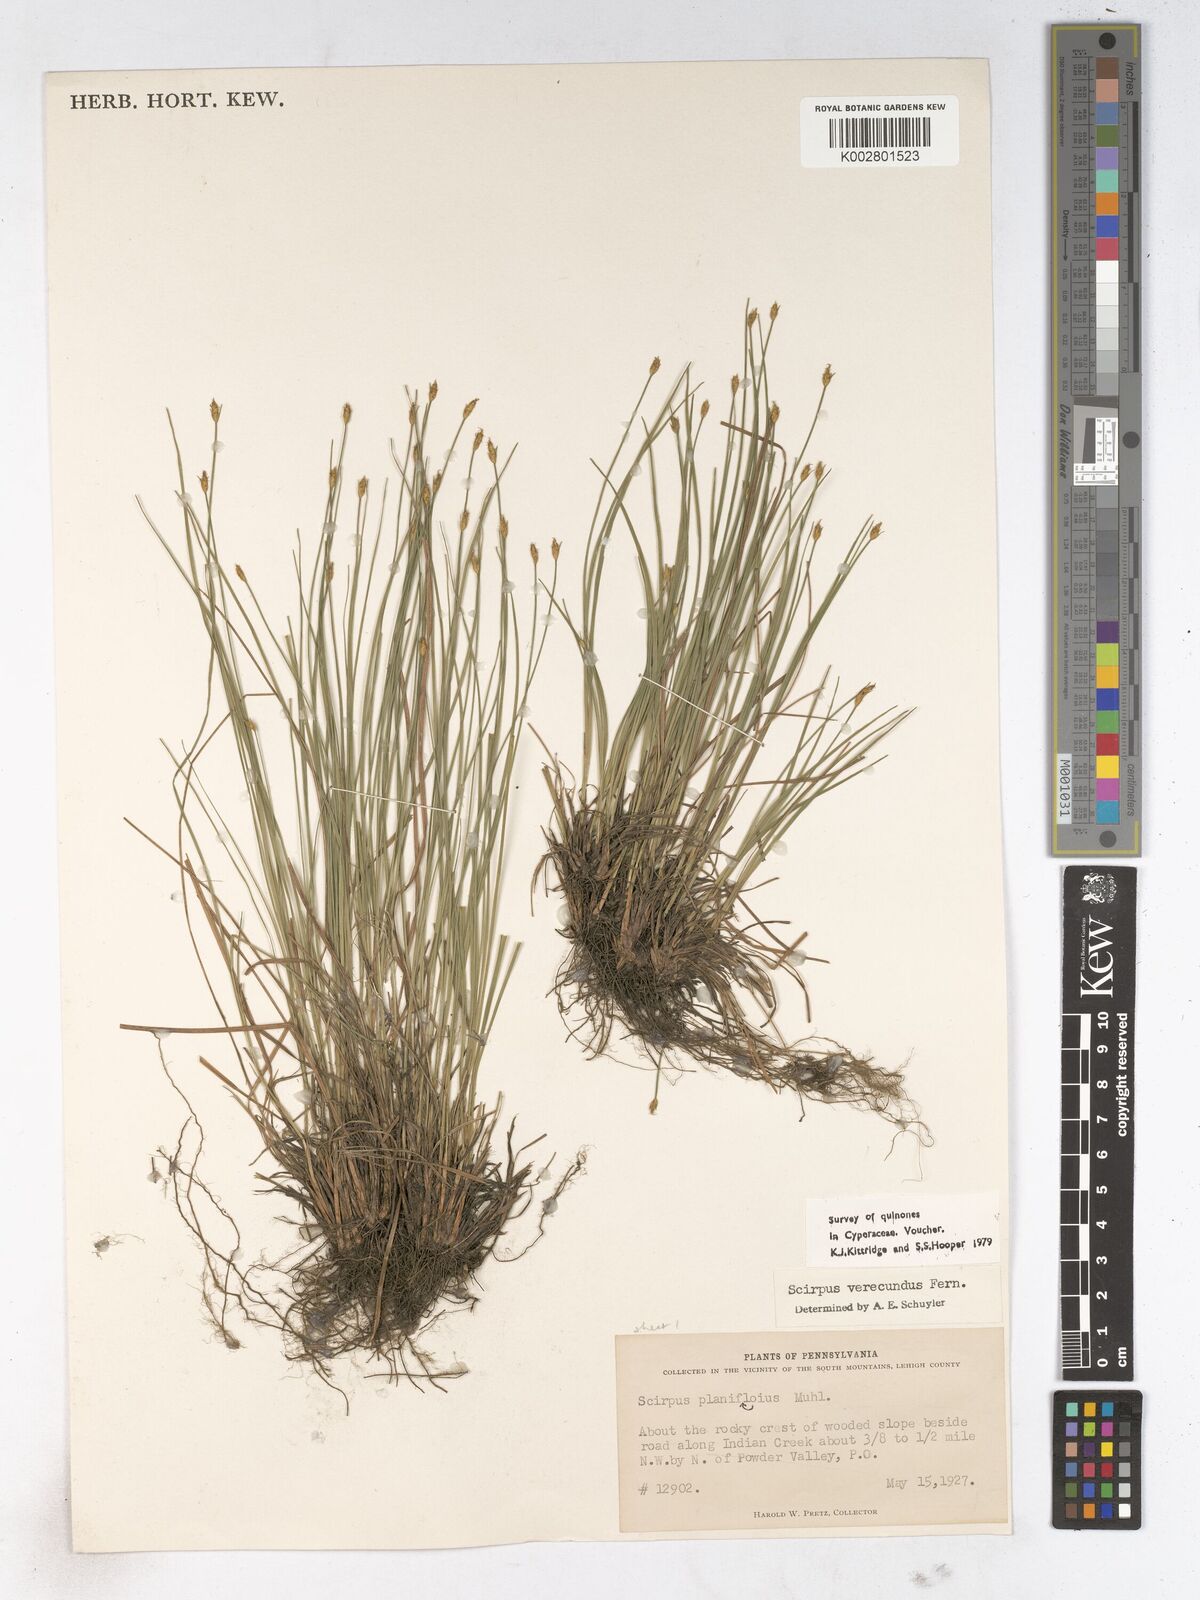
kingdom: Plantae
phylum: Tracheophyta
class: Liliopsida
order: Poales
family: Cyperaceae
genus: Trichophorum
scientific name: Trichophorum planifolium
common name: Bashful bulrush
